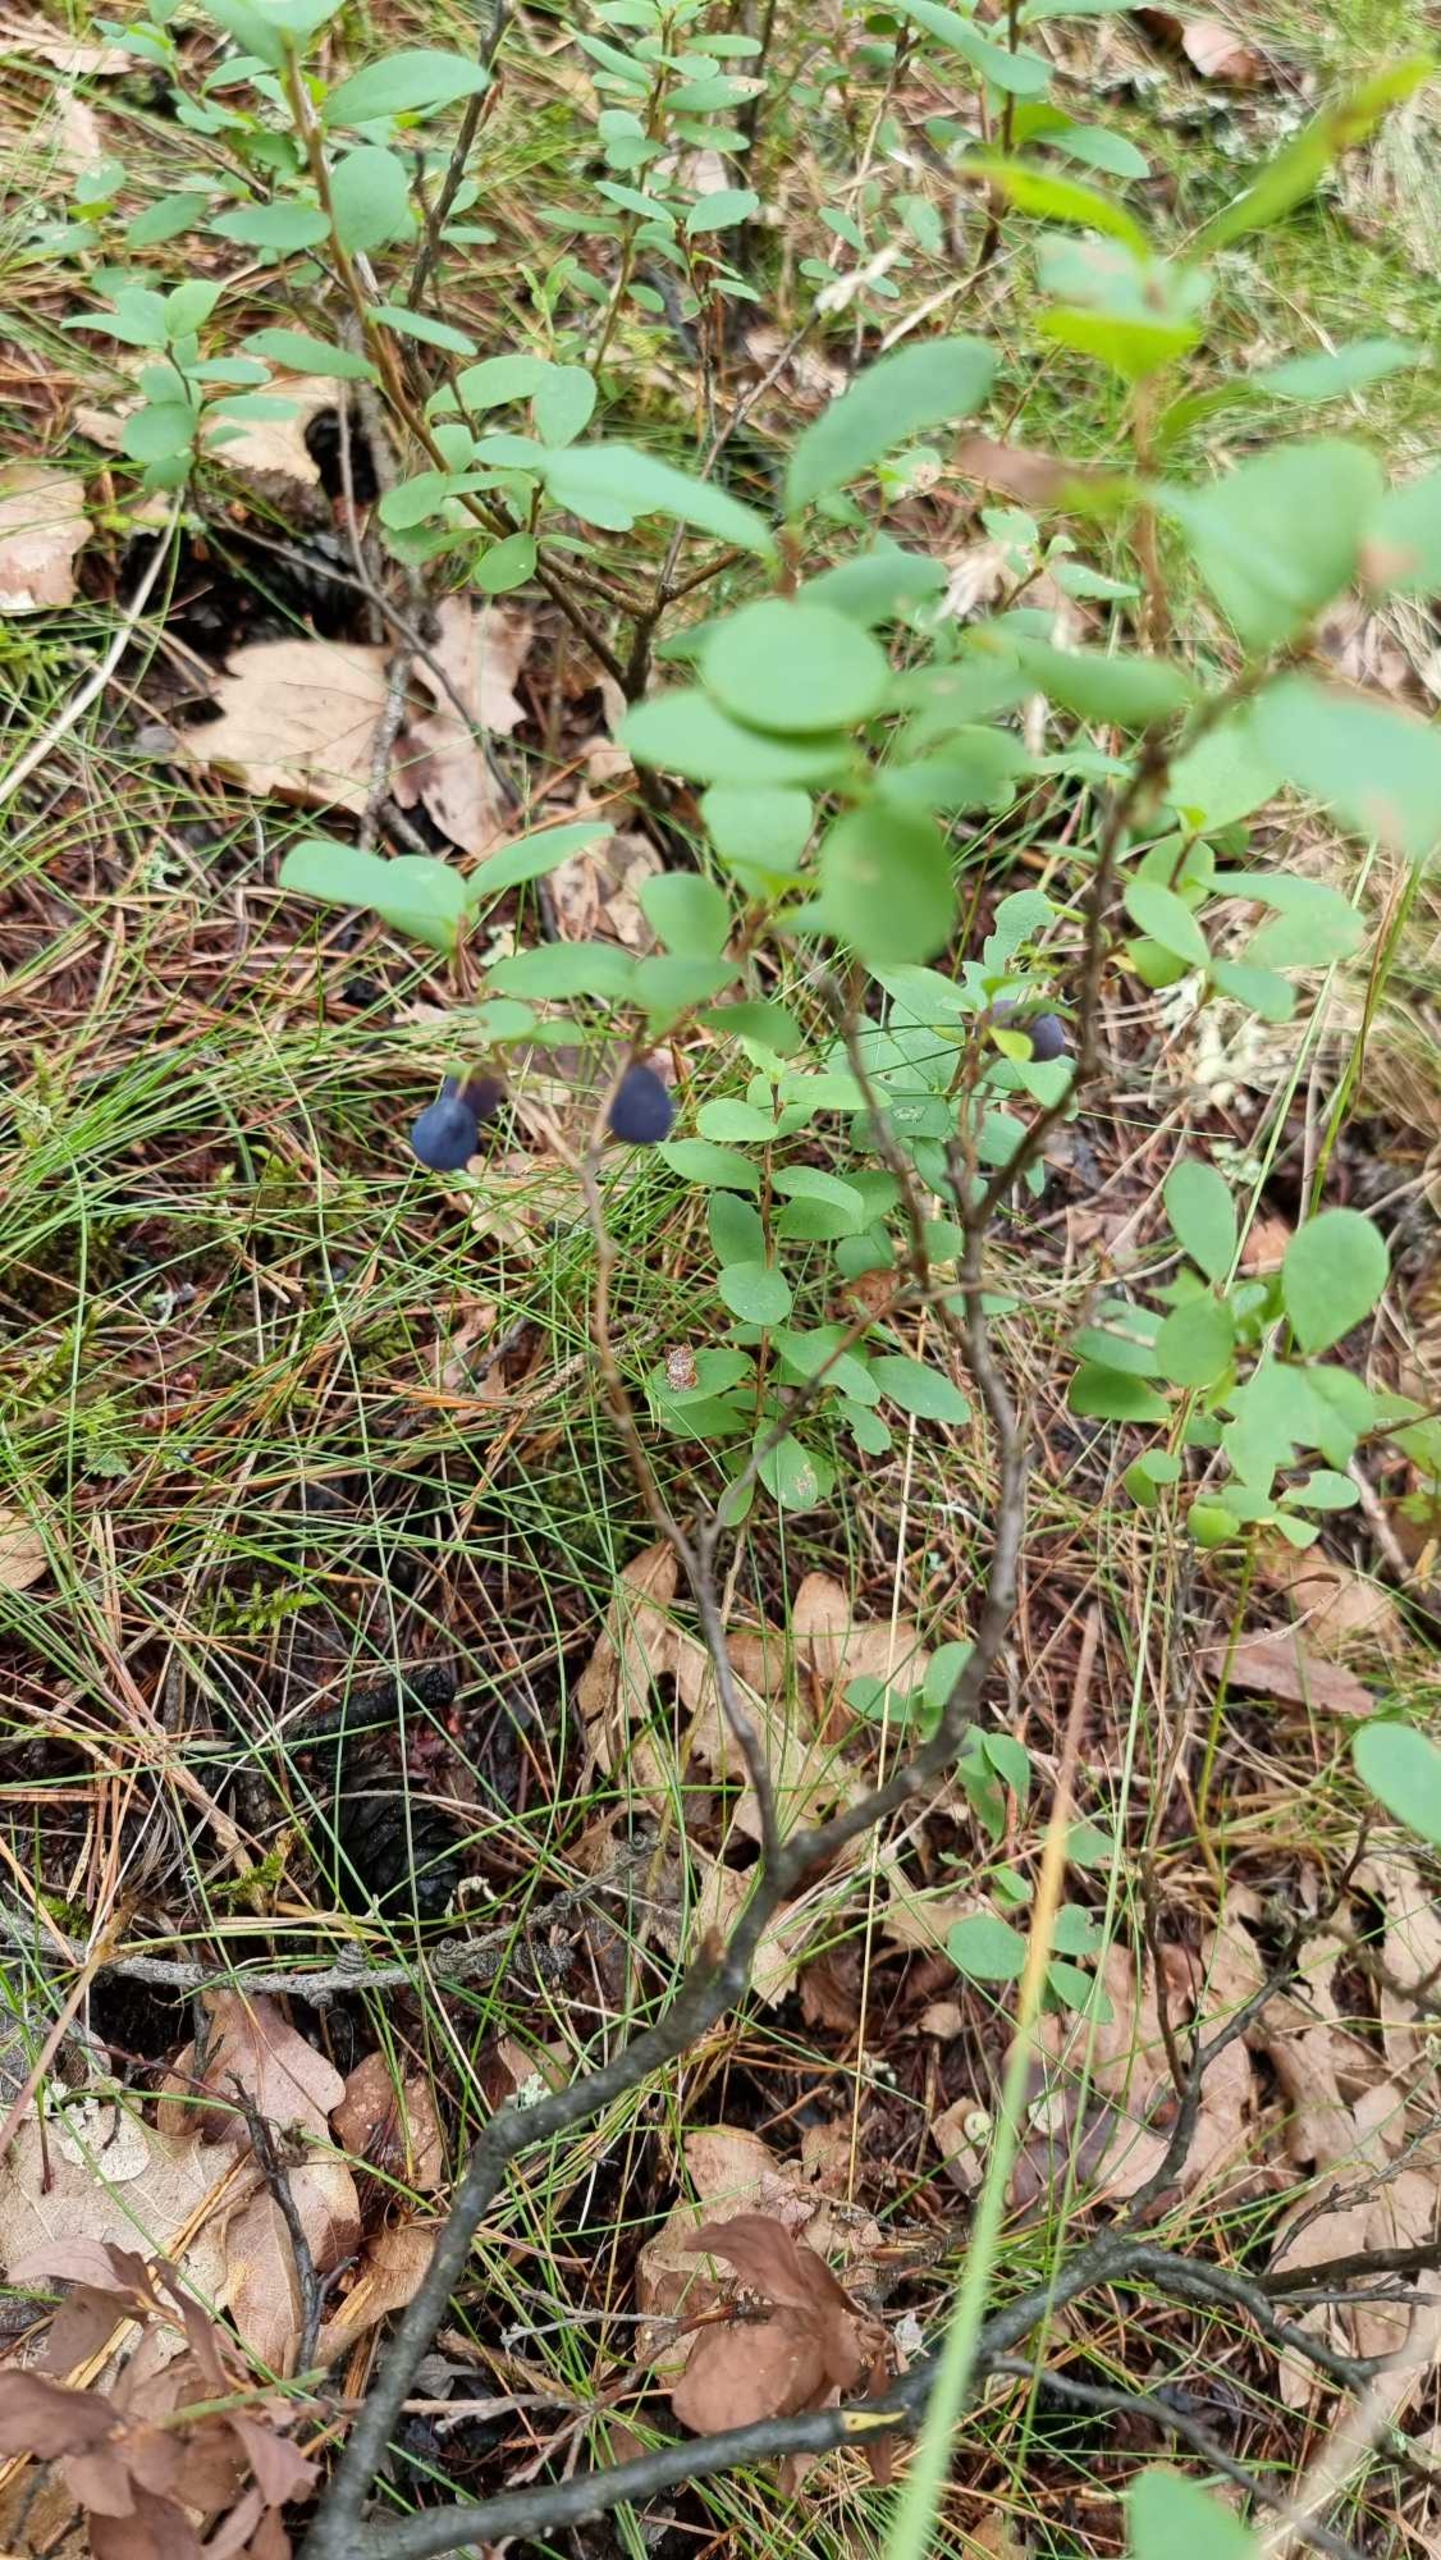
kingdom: Plantae
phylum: Tracheophyta
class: Magnoliopsida
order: Ericales
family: Ericaceae
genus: Vaccinium
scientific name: Vaccinium uliginosum
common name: Mose-bølle
